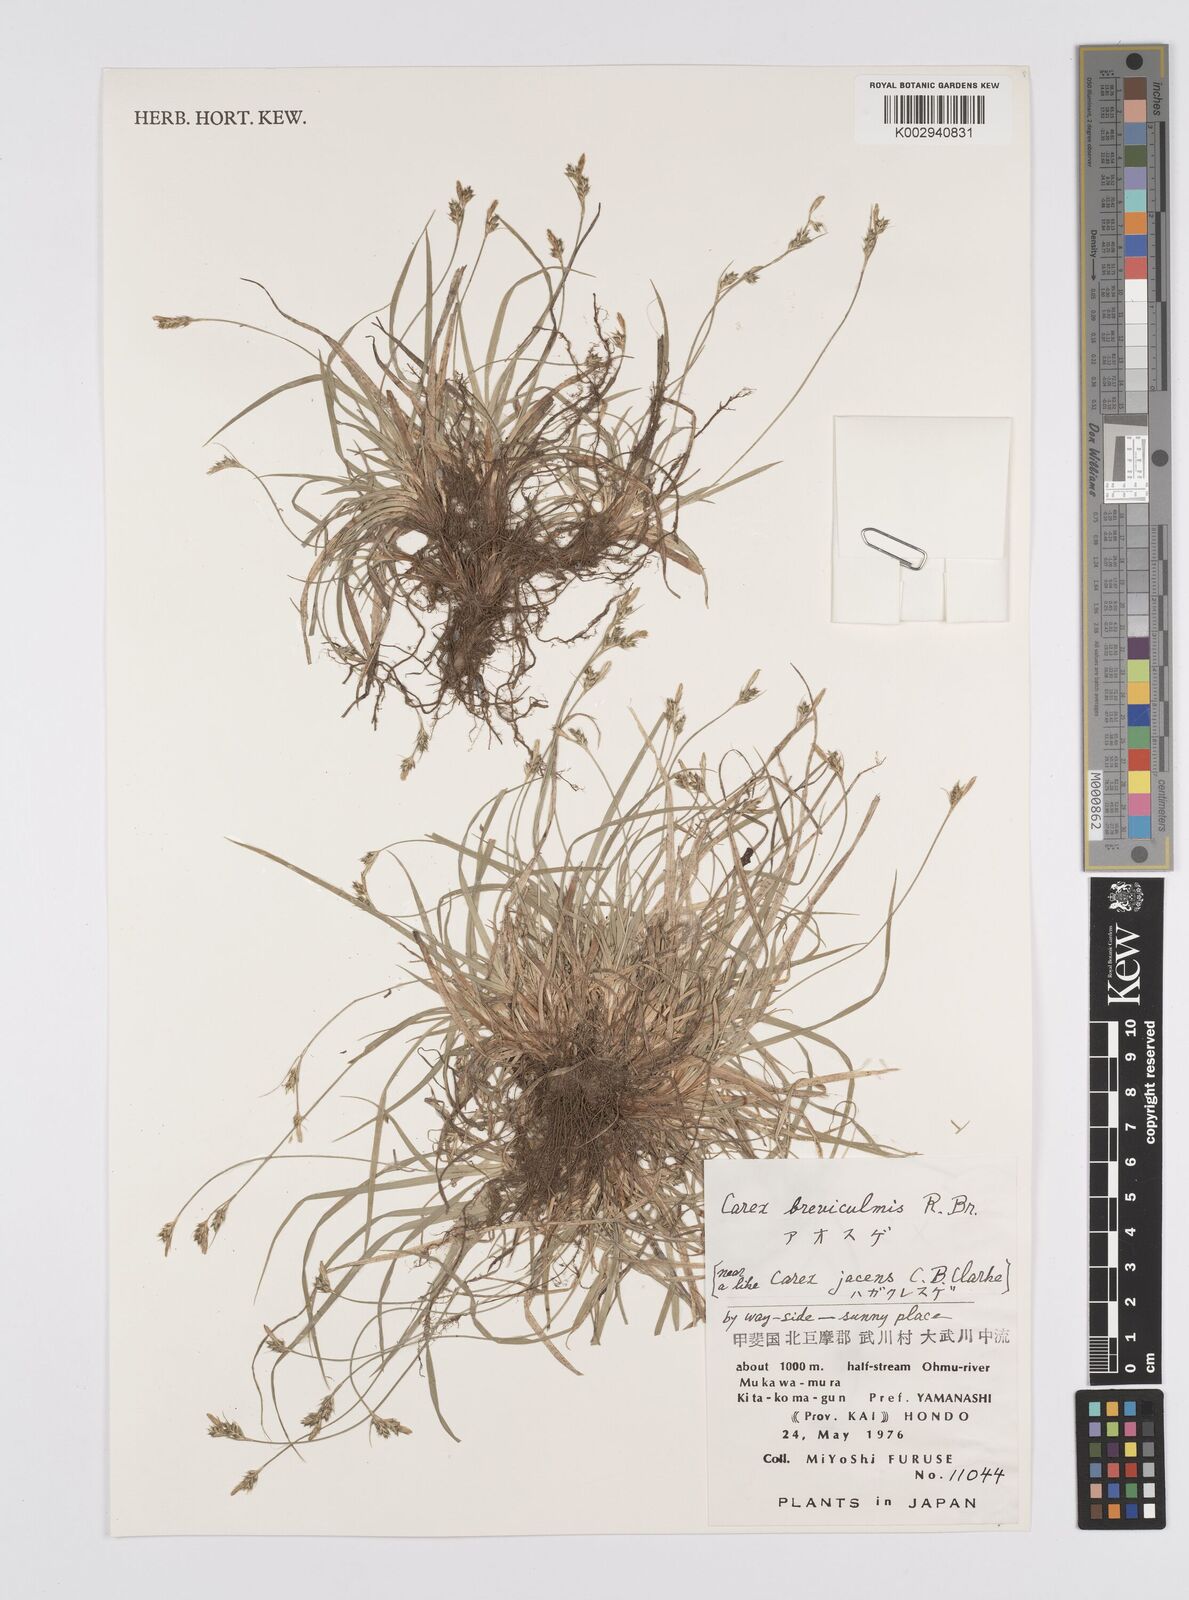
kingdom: Plantae
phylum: Tracheophyta
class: Liliopsida
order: Poales
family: Cyperaceae
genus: Carex
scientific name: Carex breviculmis
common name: Asian shortstem sedge
